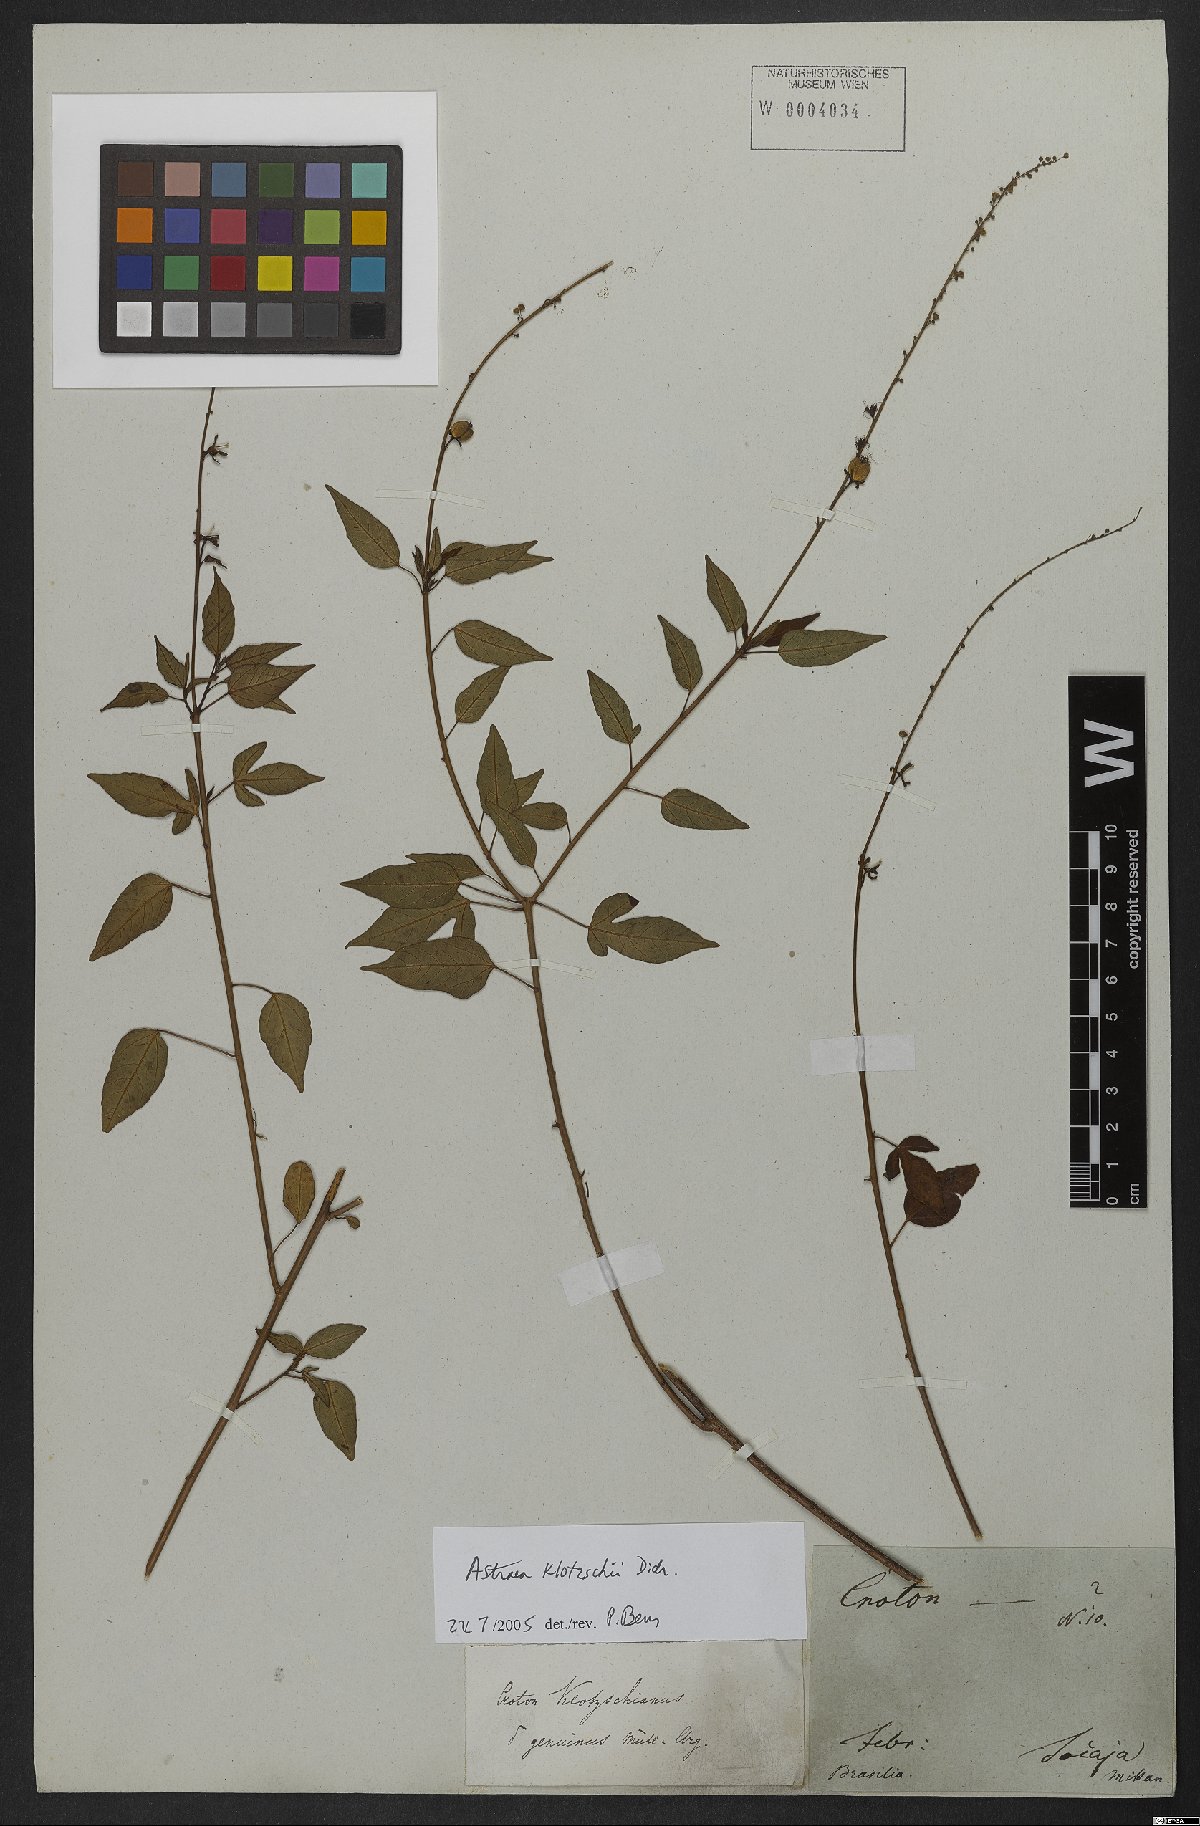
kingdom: Plantae
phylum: Tracheophyta
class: Magnoliopsida
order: Malpighiales
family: Euphorbiaceae
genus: Astraea
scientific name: Astraea macroura
